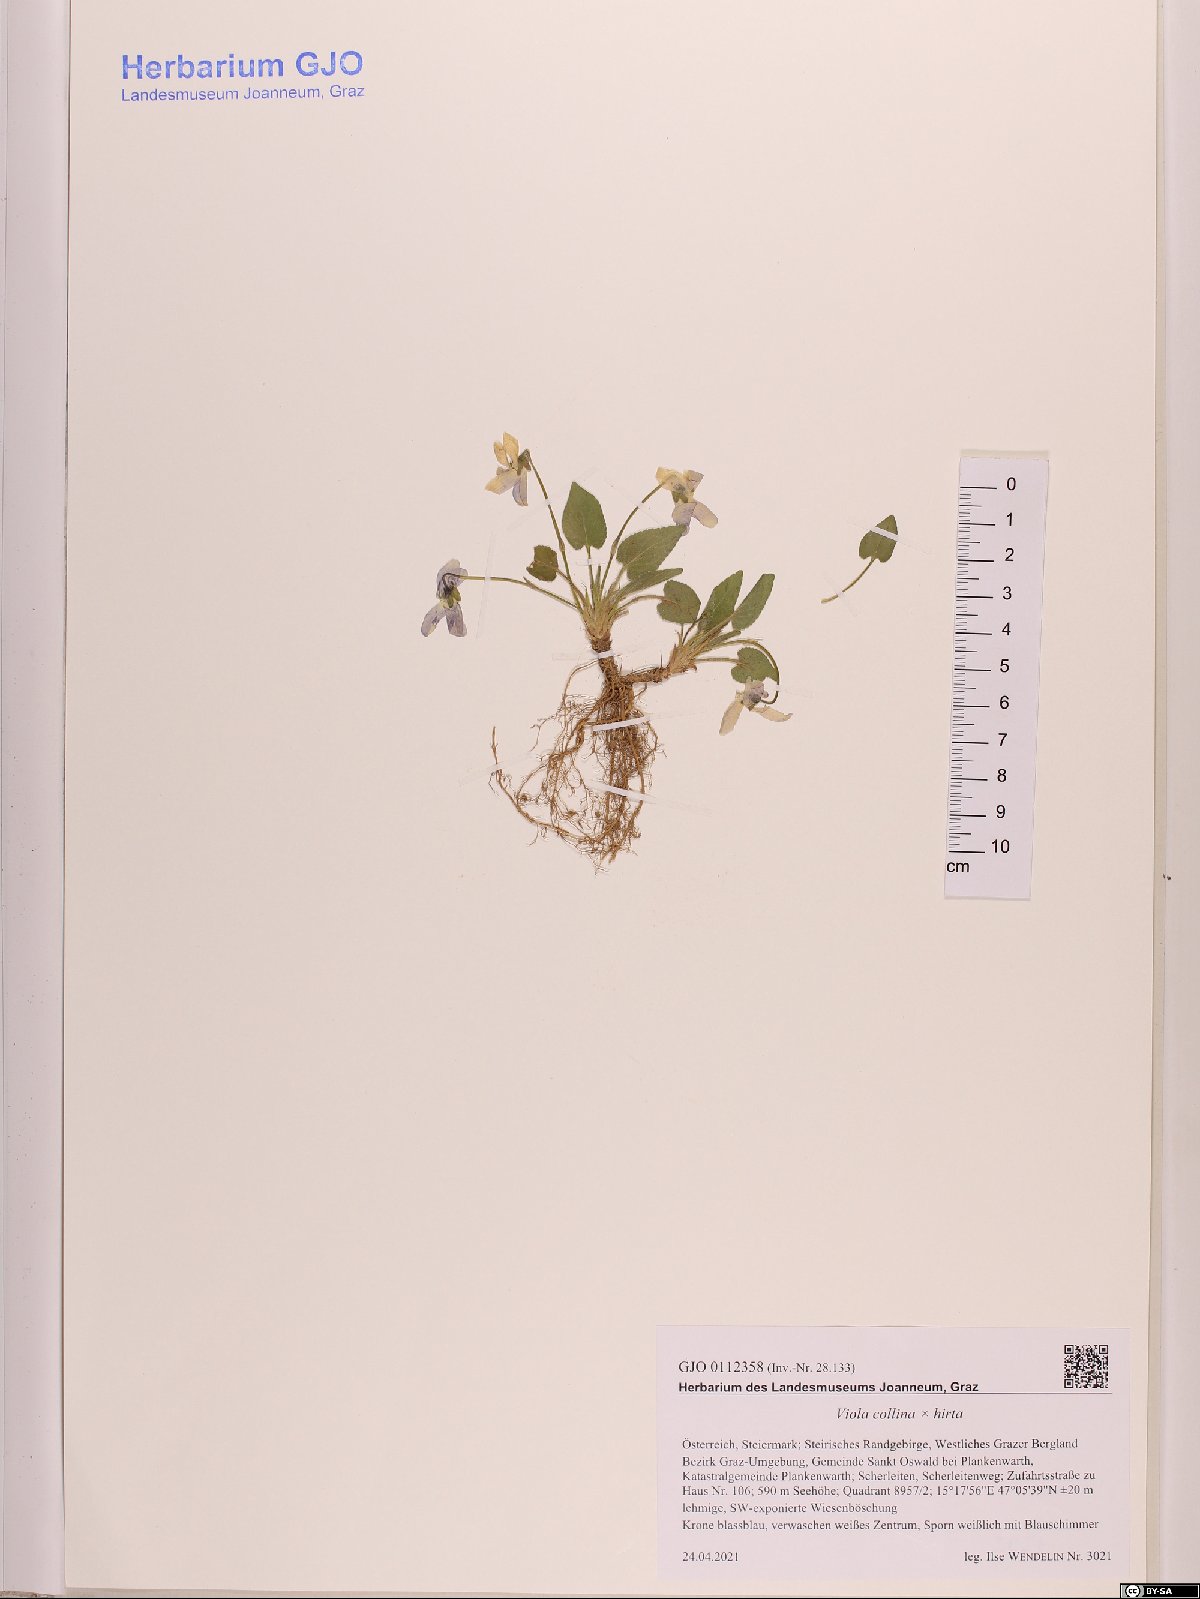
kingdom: Plantae
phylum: Tracheophyta
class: Magnoliopsida
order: Malpighiales
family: Violaceae
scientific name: Violaceae
